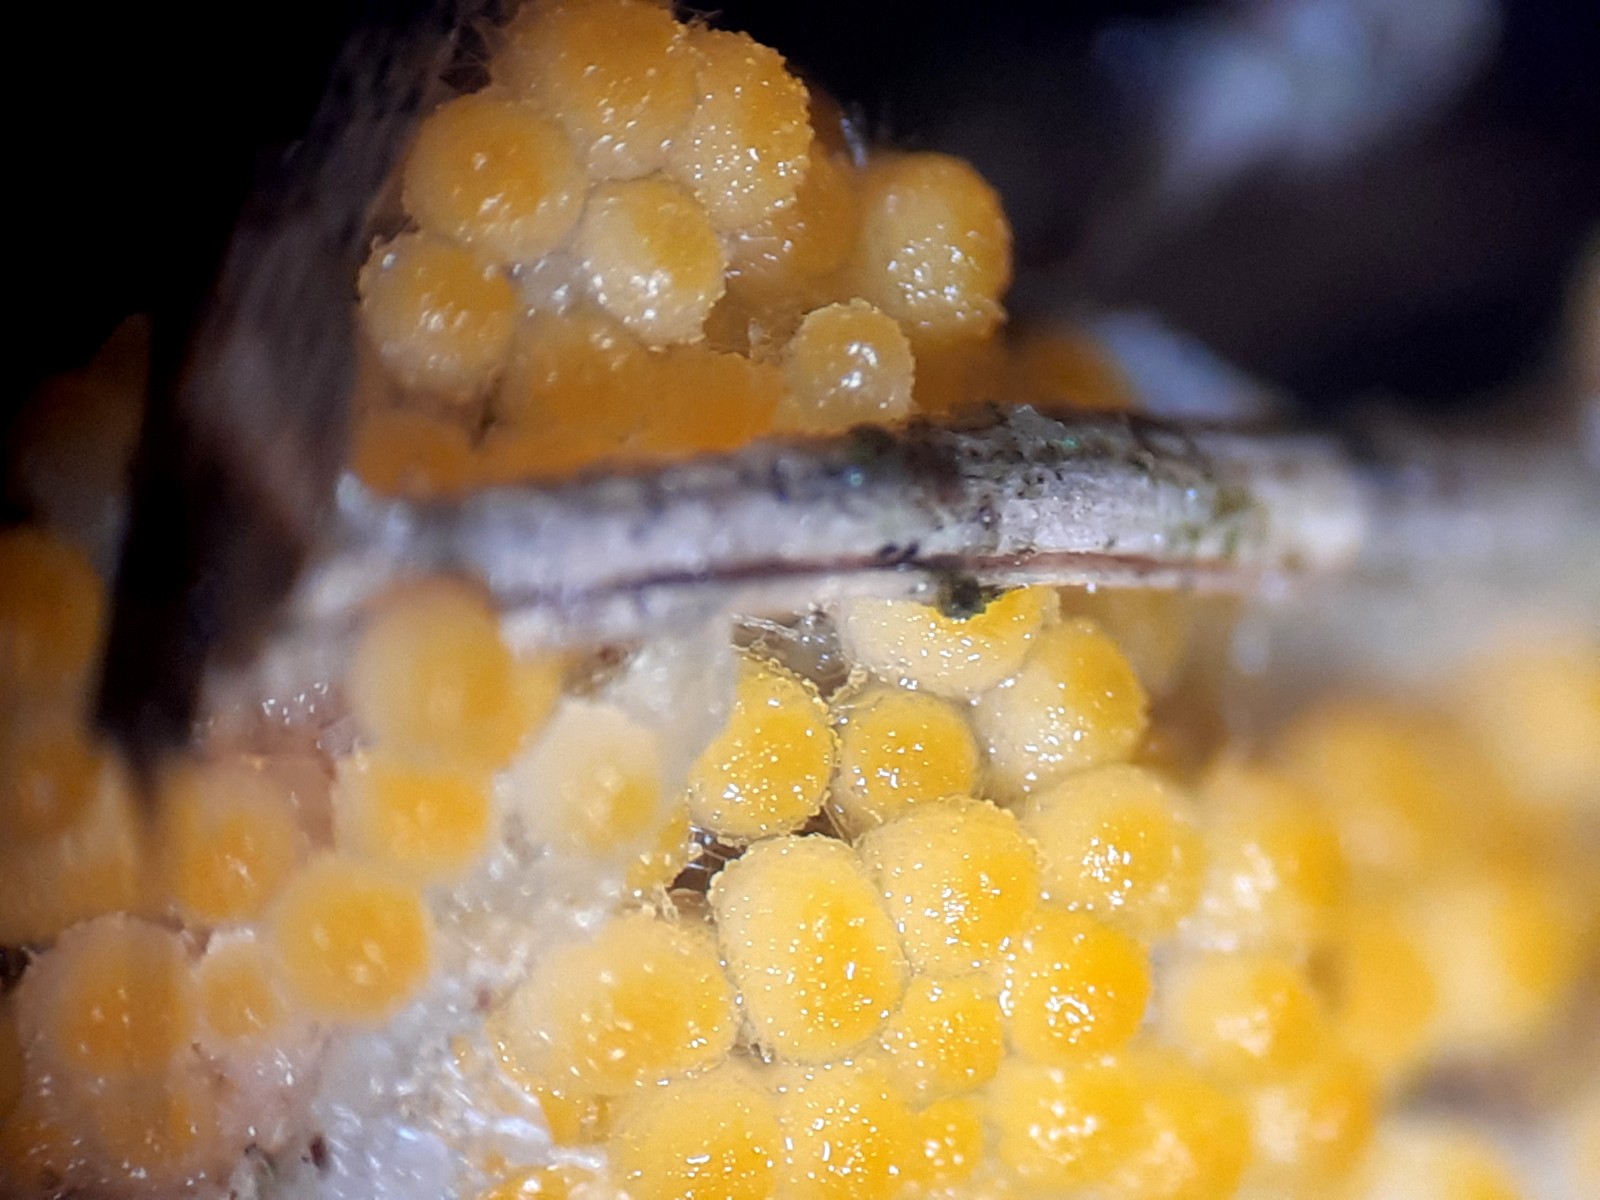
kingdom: Fungi
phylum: Ascomycota
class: Pezizomycetes
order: Pezizales
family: Pyronemataceae
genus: Byssonectria
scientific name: Byssonectria
